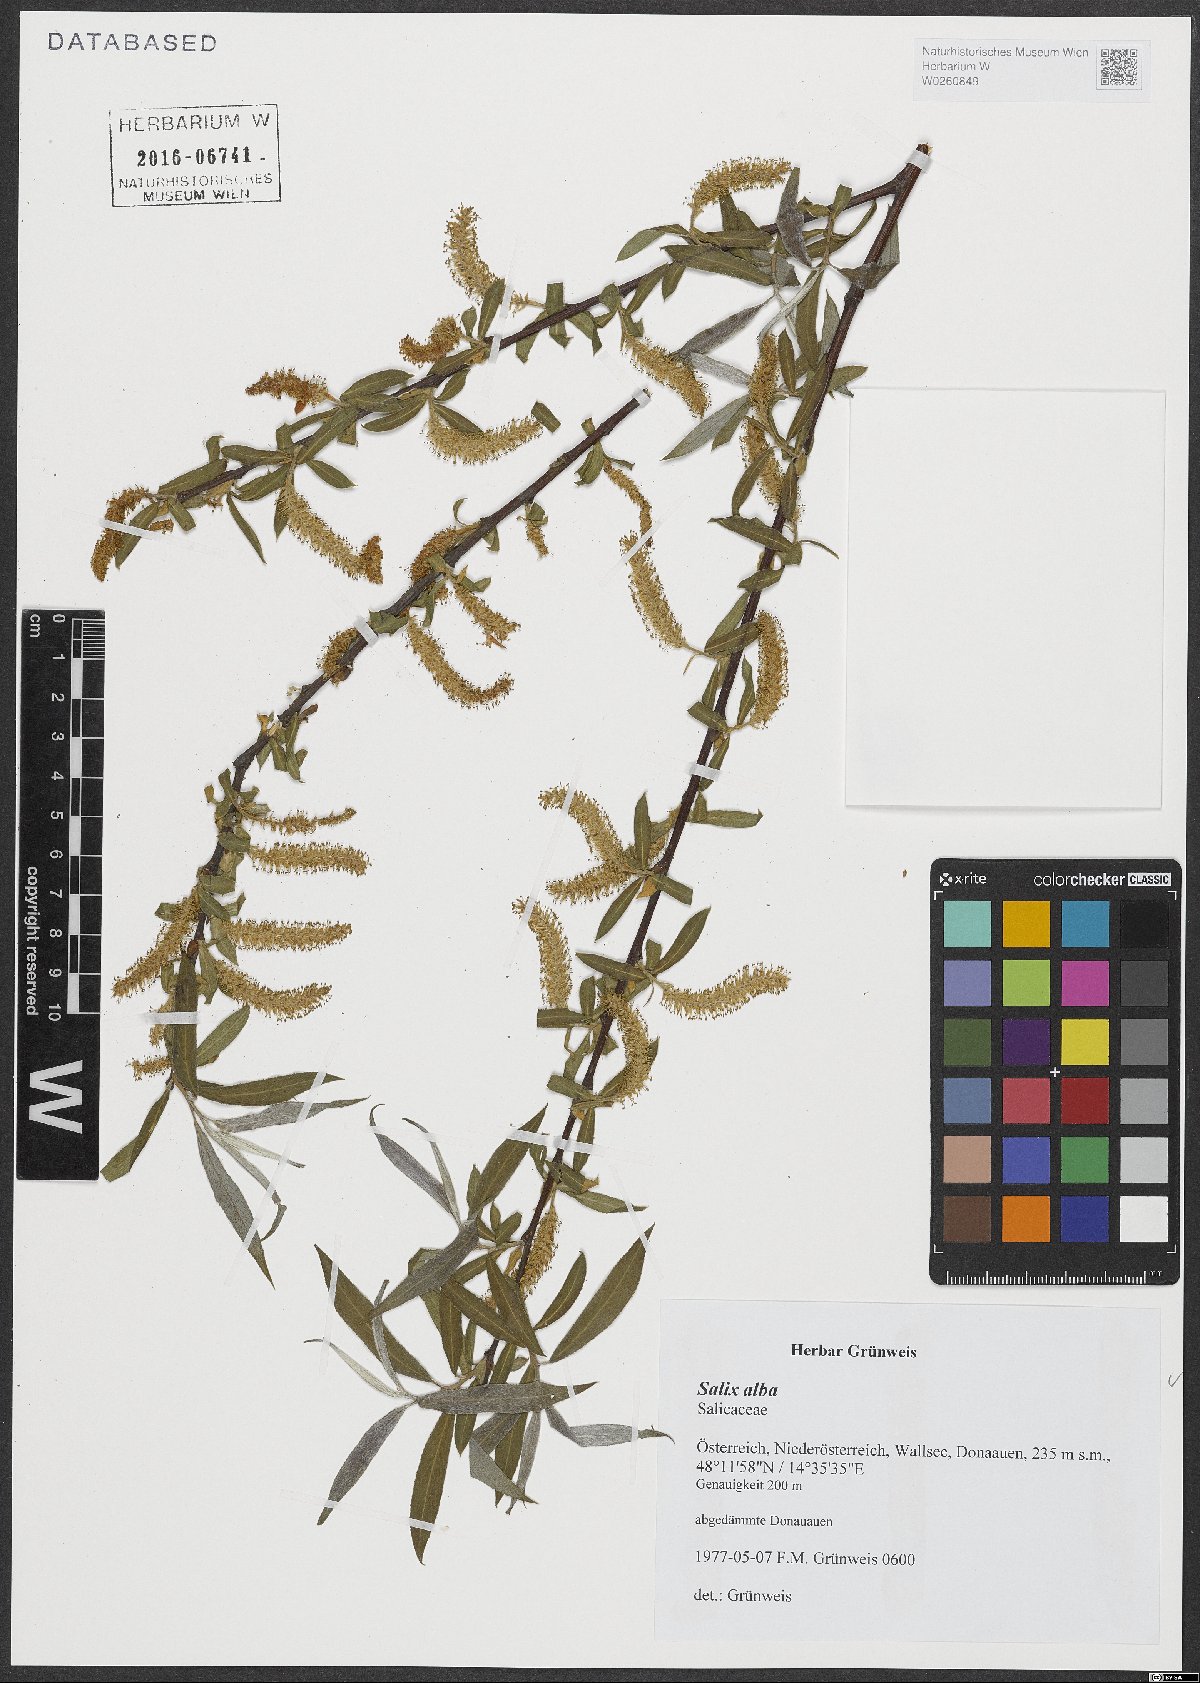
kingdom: Plantae
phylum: Tracheophyta
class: Magnoliopsida
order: Malpighiales
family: Salicaceae
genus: Salix
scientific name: Salix alba
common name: White willow
